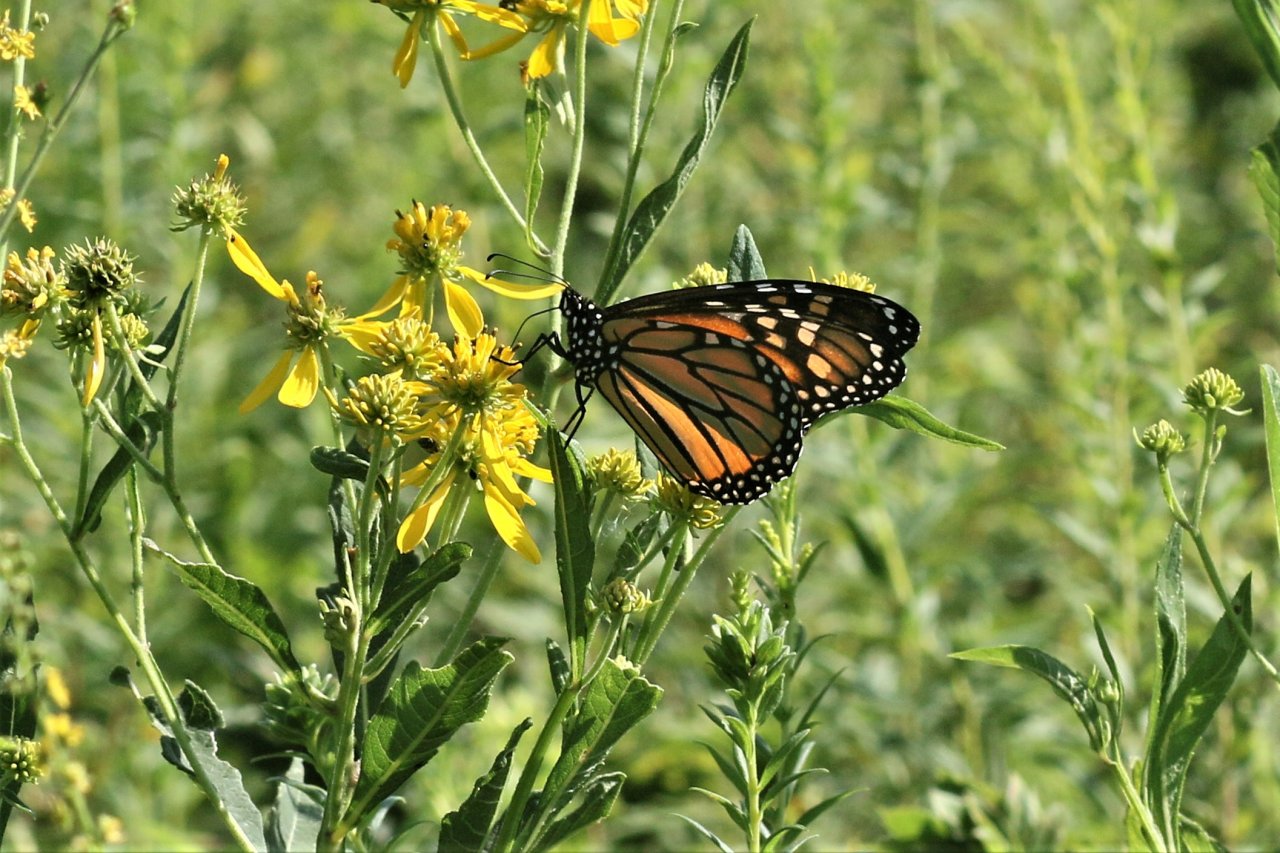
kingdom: Animalia
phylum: Arthropoda
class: Insecta
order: Lepidoptera
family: Nymphalidae
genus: Danaus
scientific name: Danaus plexippus
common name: Monarch
